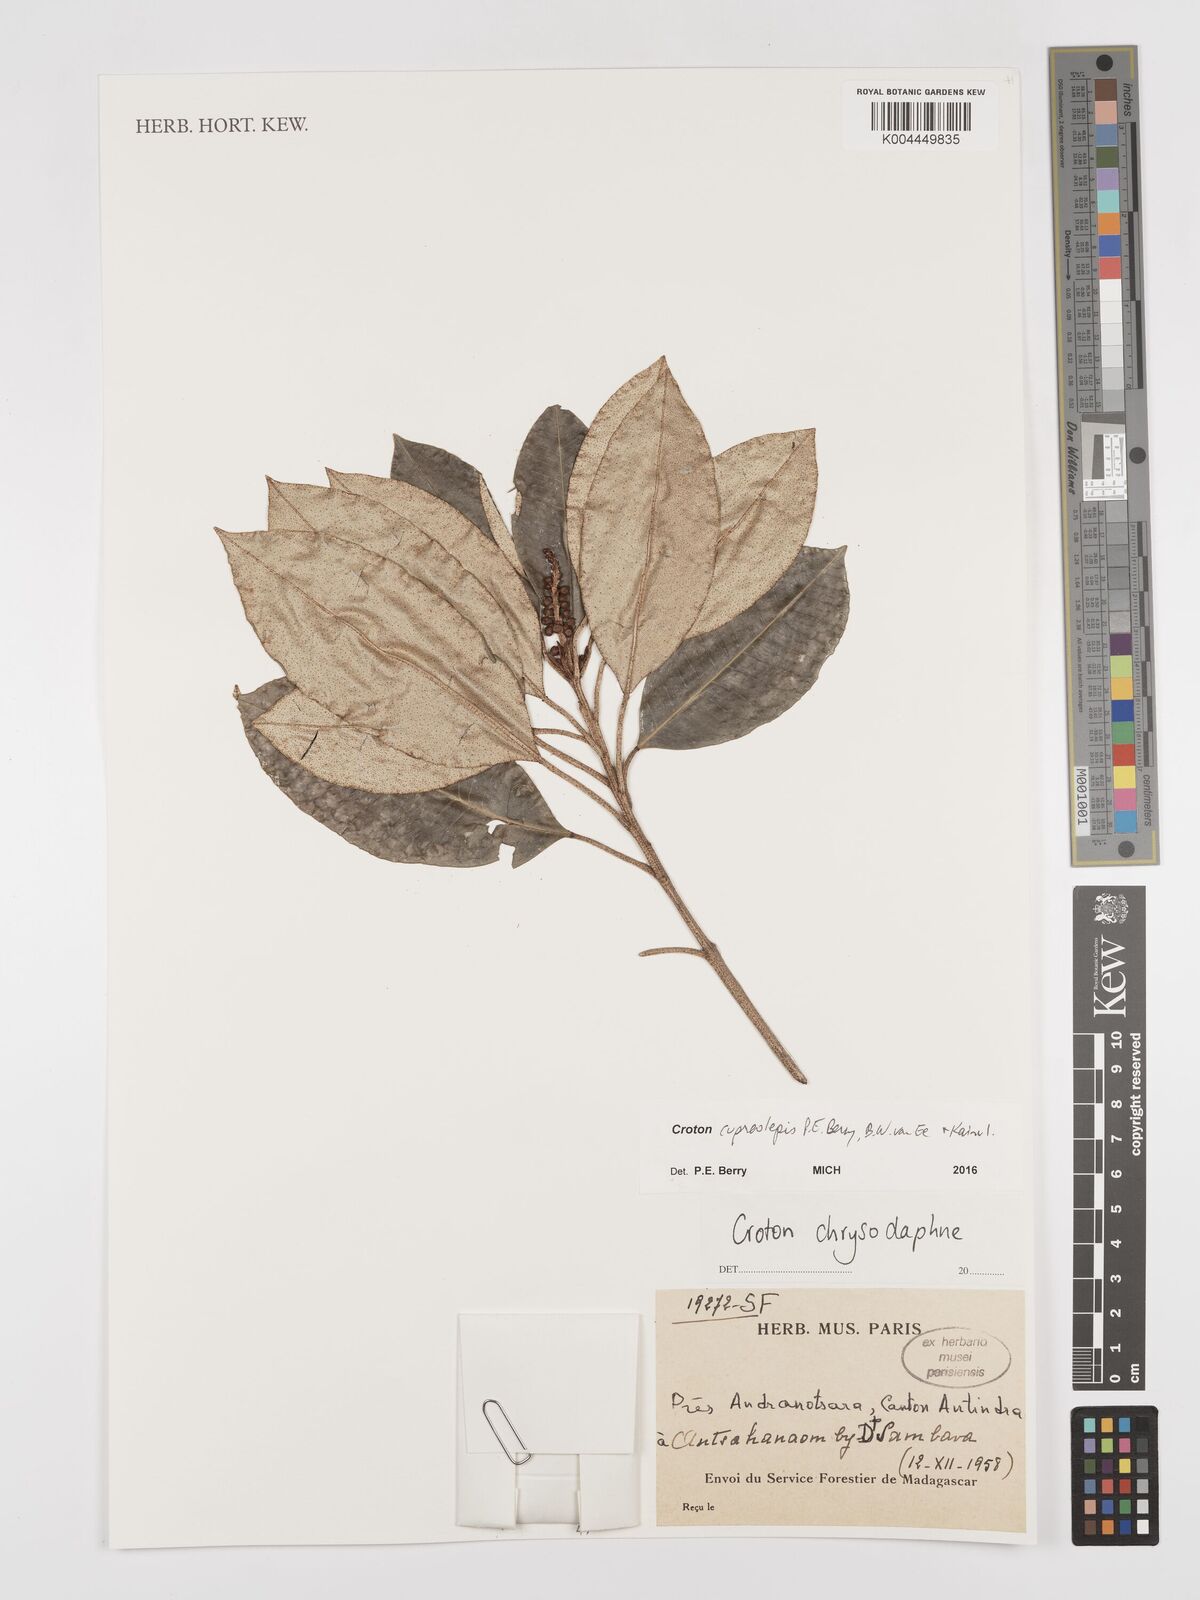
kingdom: Plantae
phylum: Tracheophyta
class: Magnoliopsida
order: Malpighiales
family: Euphorbiaceae
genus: Croton
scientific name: Croton cupreolepis
